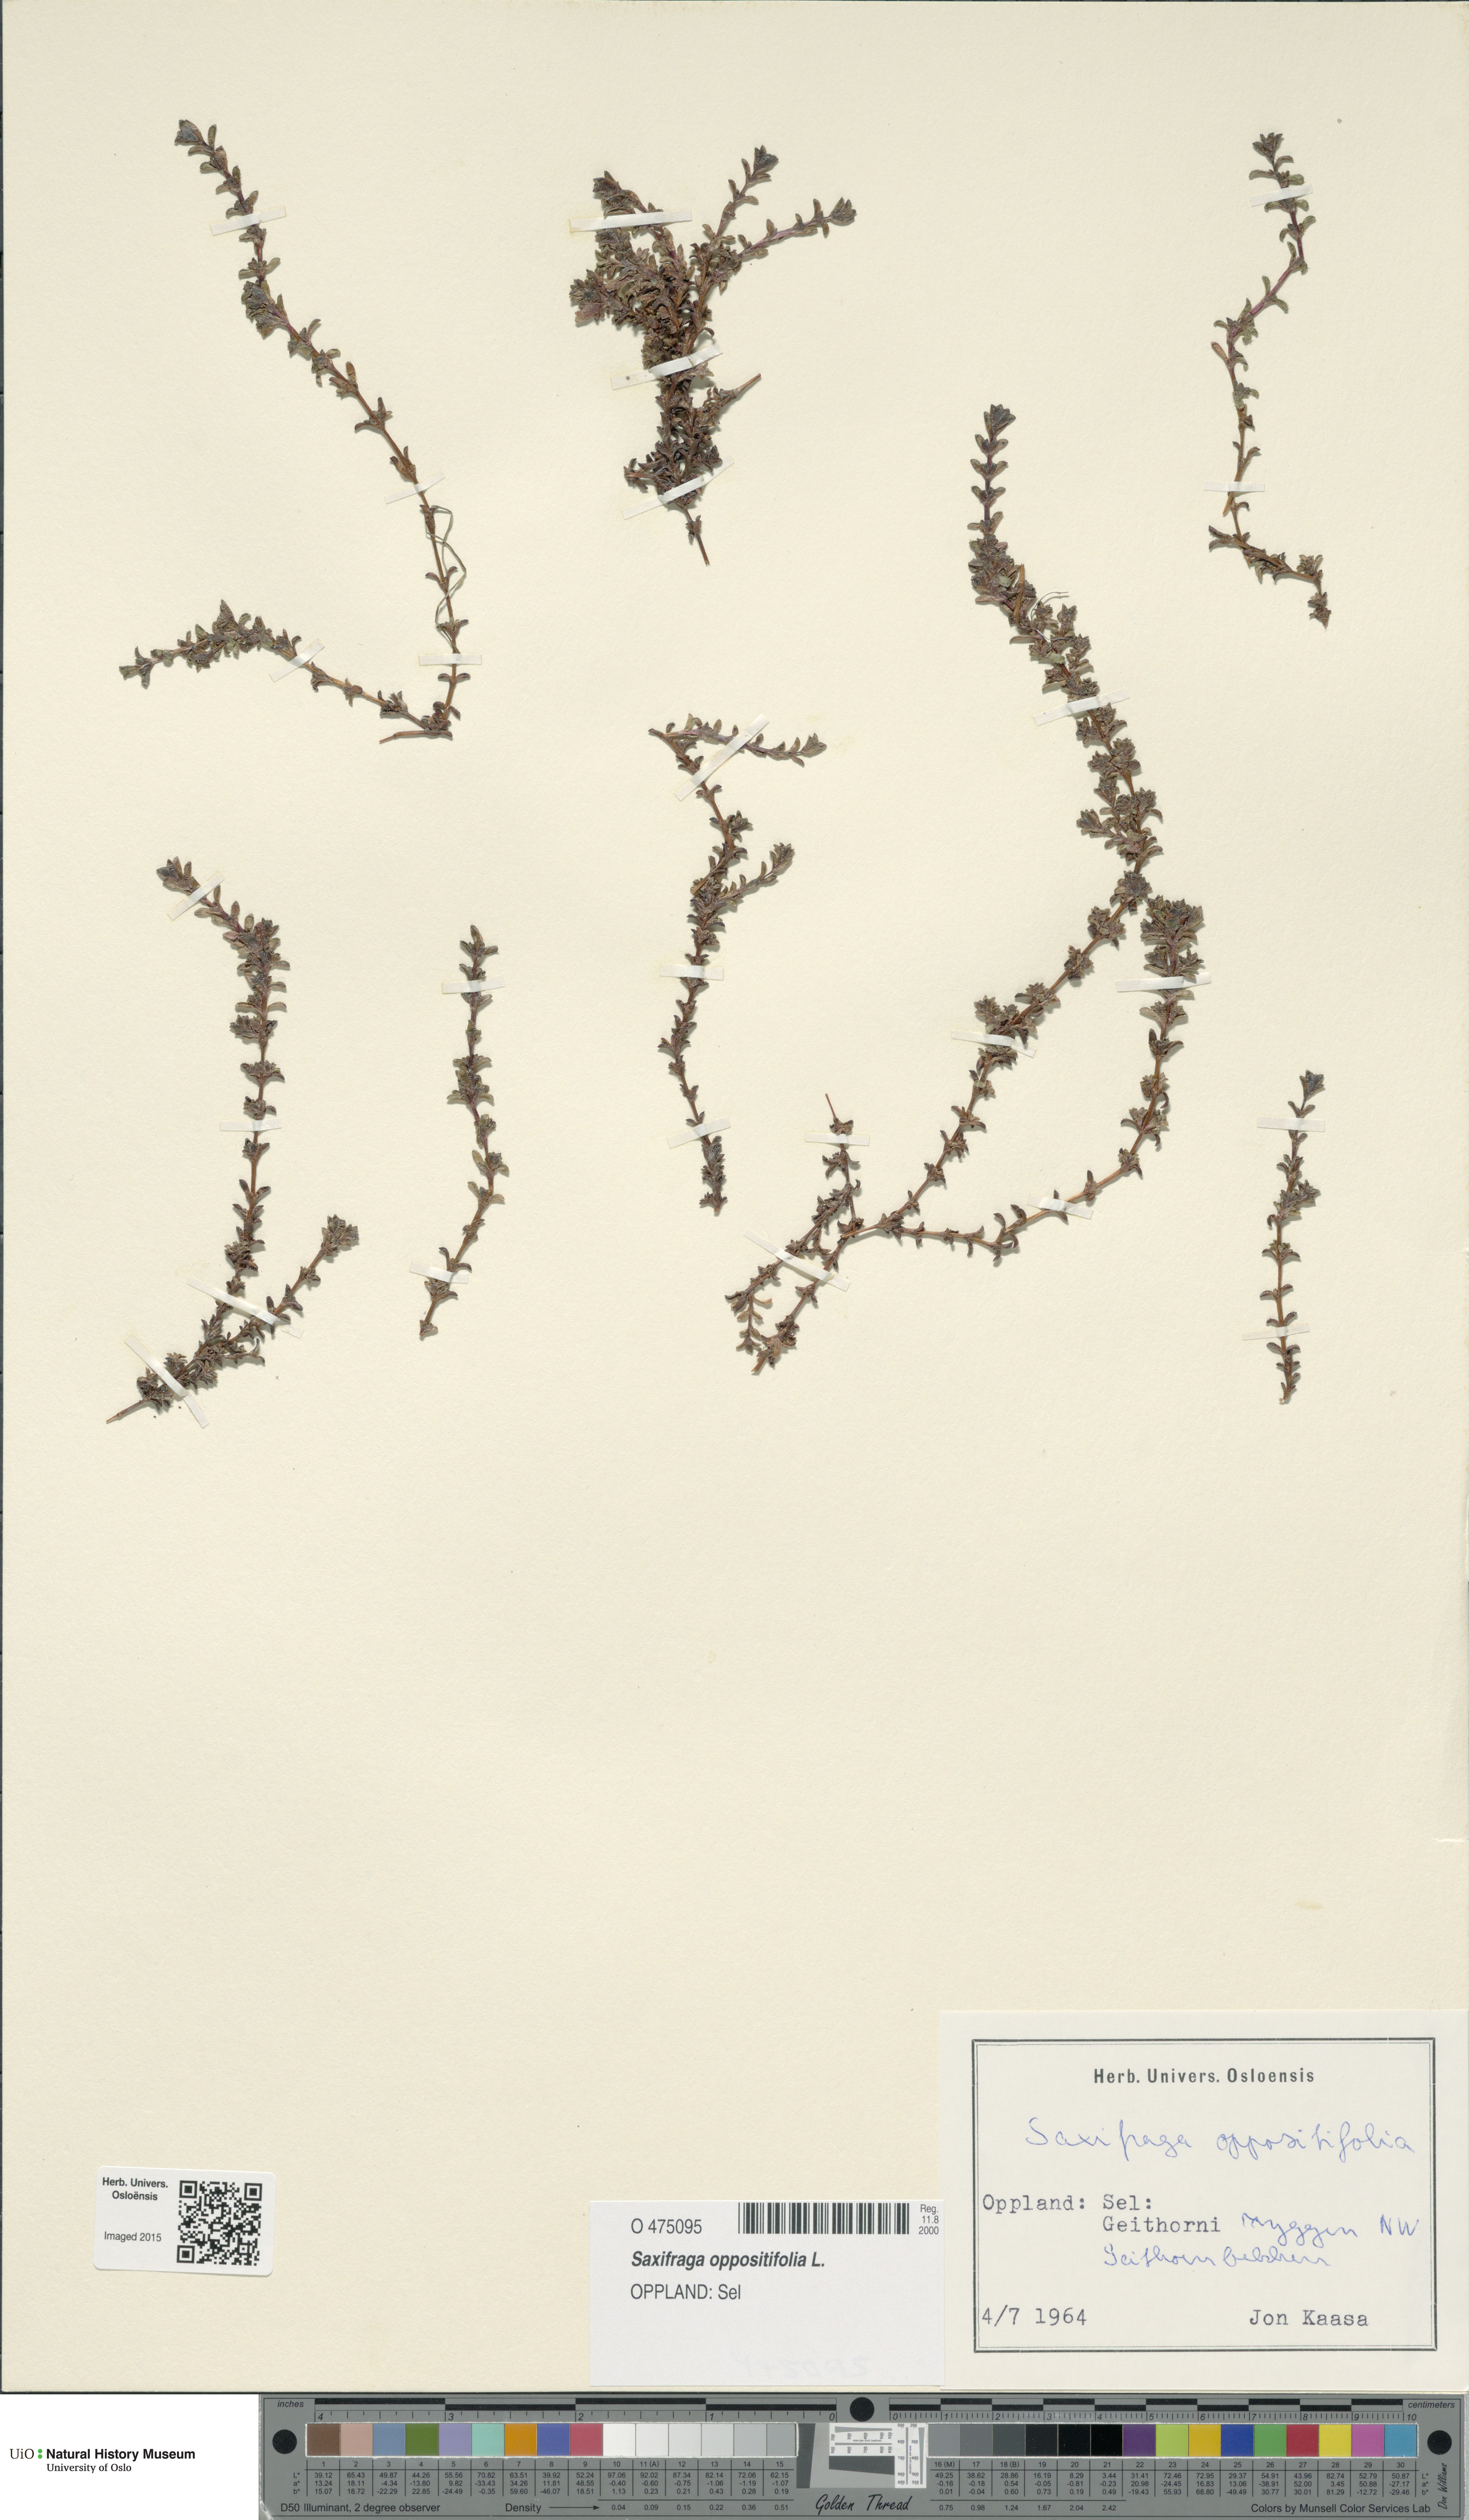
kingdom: Plantae
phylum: Tracheophyta
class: Magnoliopsida
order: Saxifragales
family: Saxifragaceae
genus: Saxifraga
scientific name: Saxifraga oppositifolia
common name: Purple saxifrage
